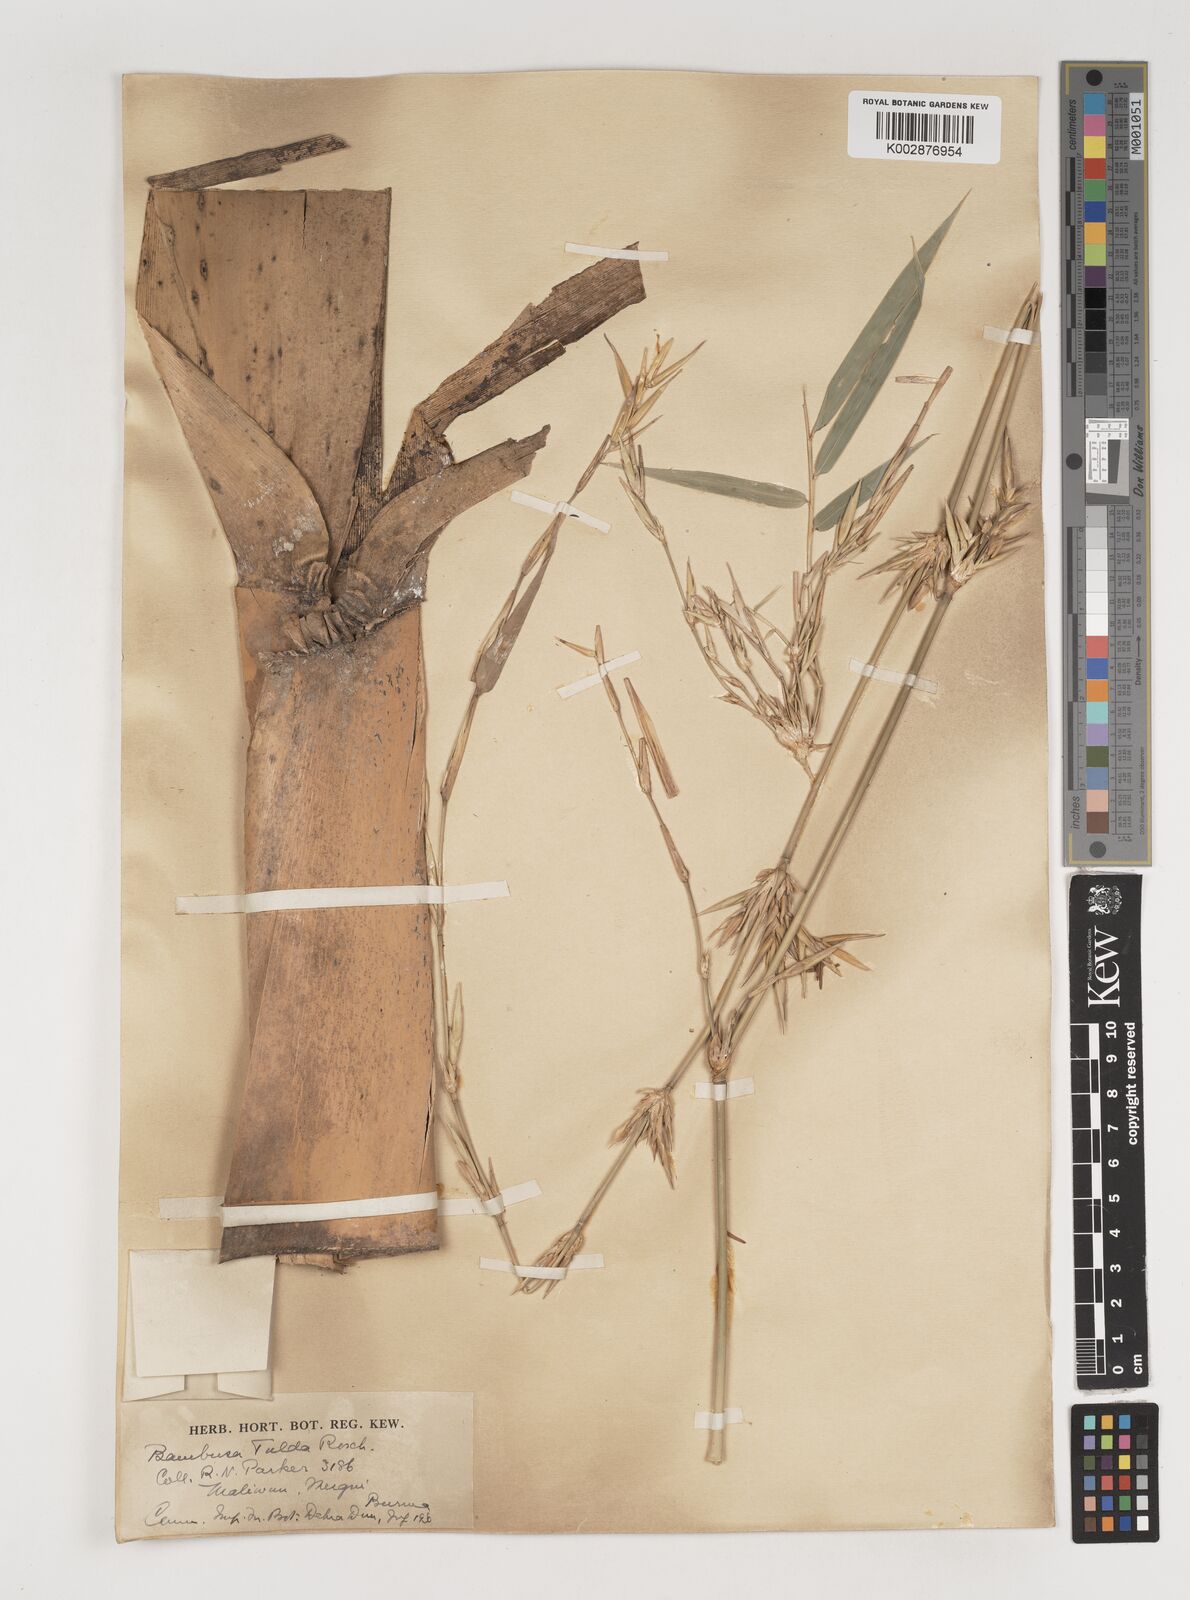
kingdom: Plantae
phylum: Tracheophyta
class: Liliopsida
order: Poales
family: Poaceae
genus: Bambusa
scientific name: Bambusa tulda
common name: Bengal bamboo
